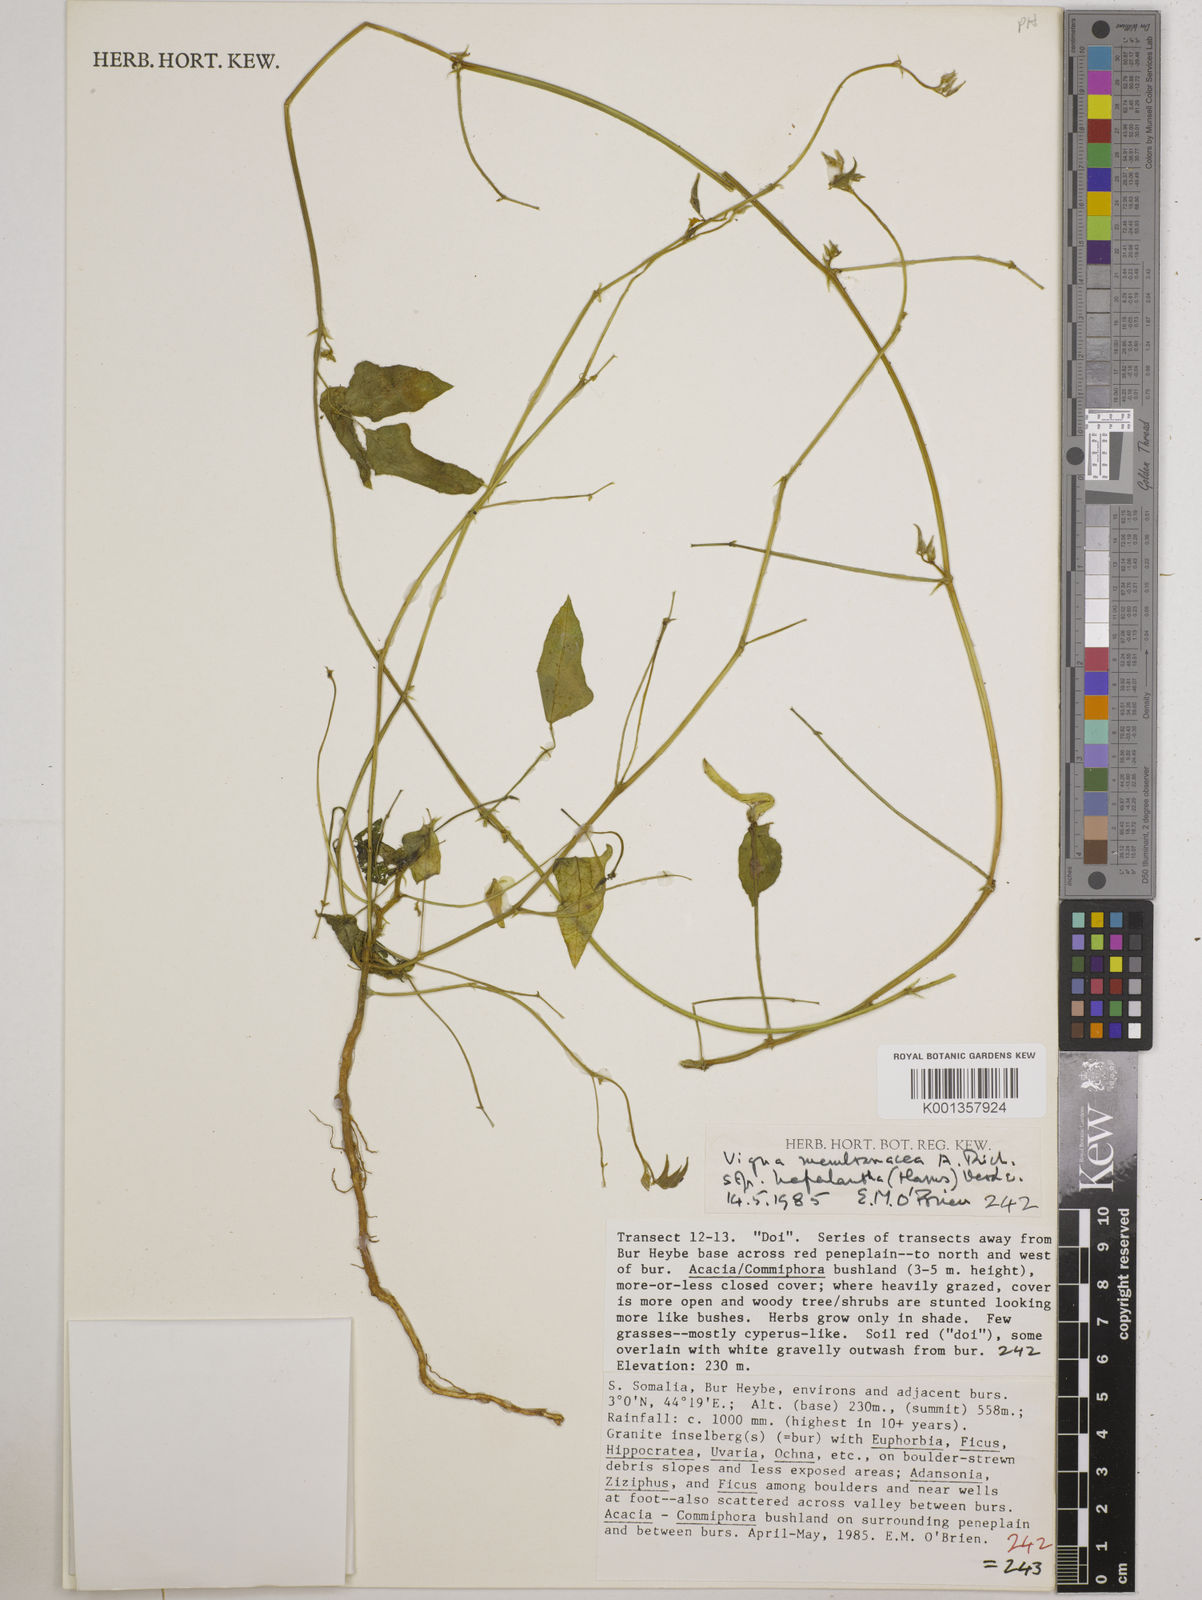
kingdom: Plantae
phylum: Tracheophyta
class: Magnoliopsida
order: Fabales
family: Fabaceae
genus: Vigna
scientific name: Vigna
